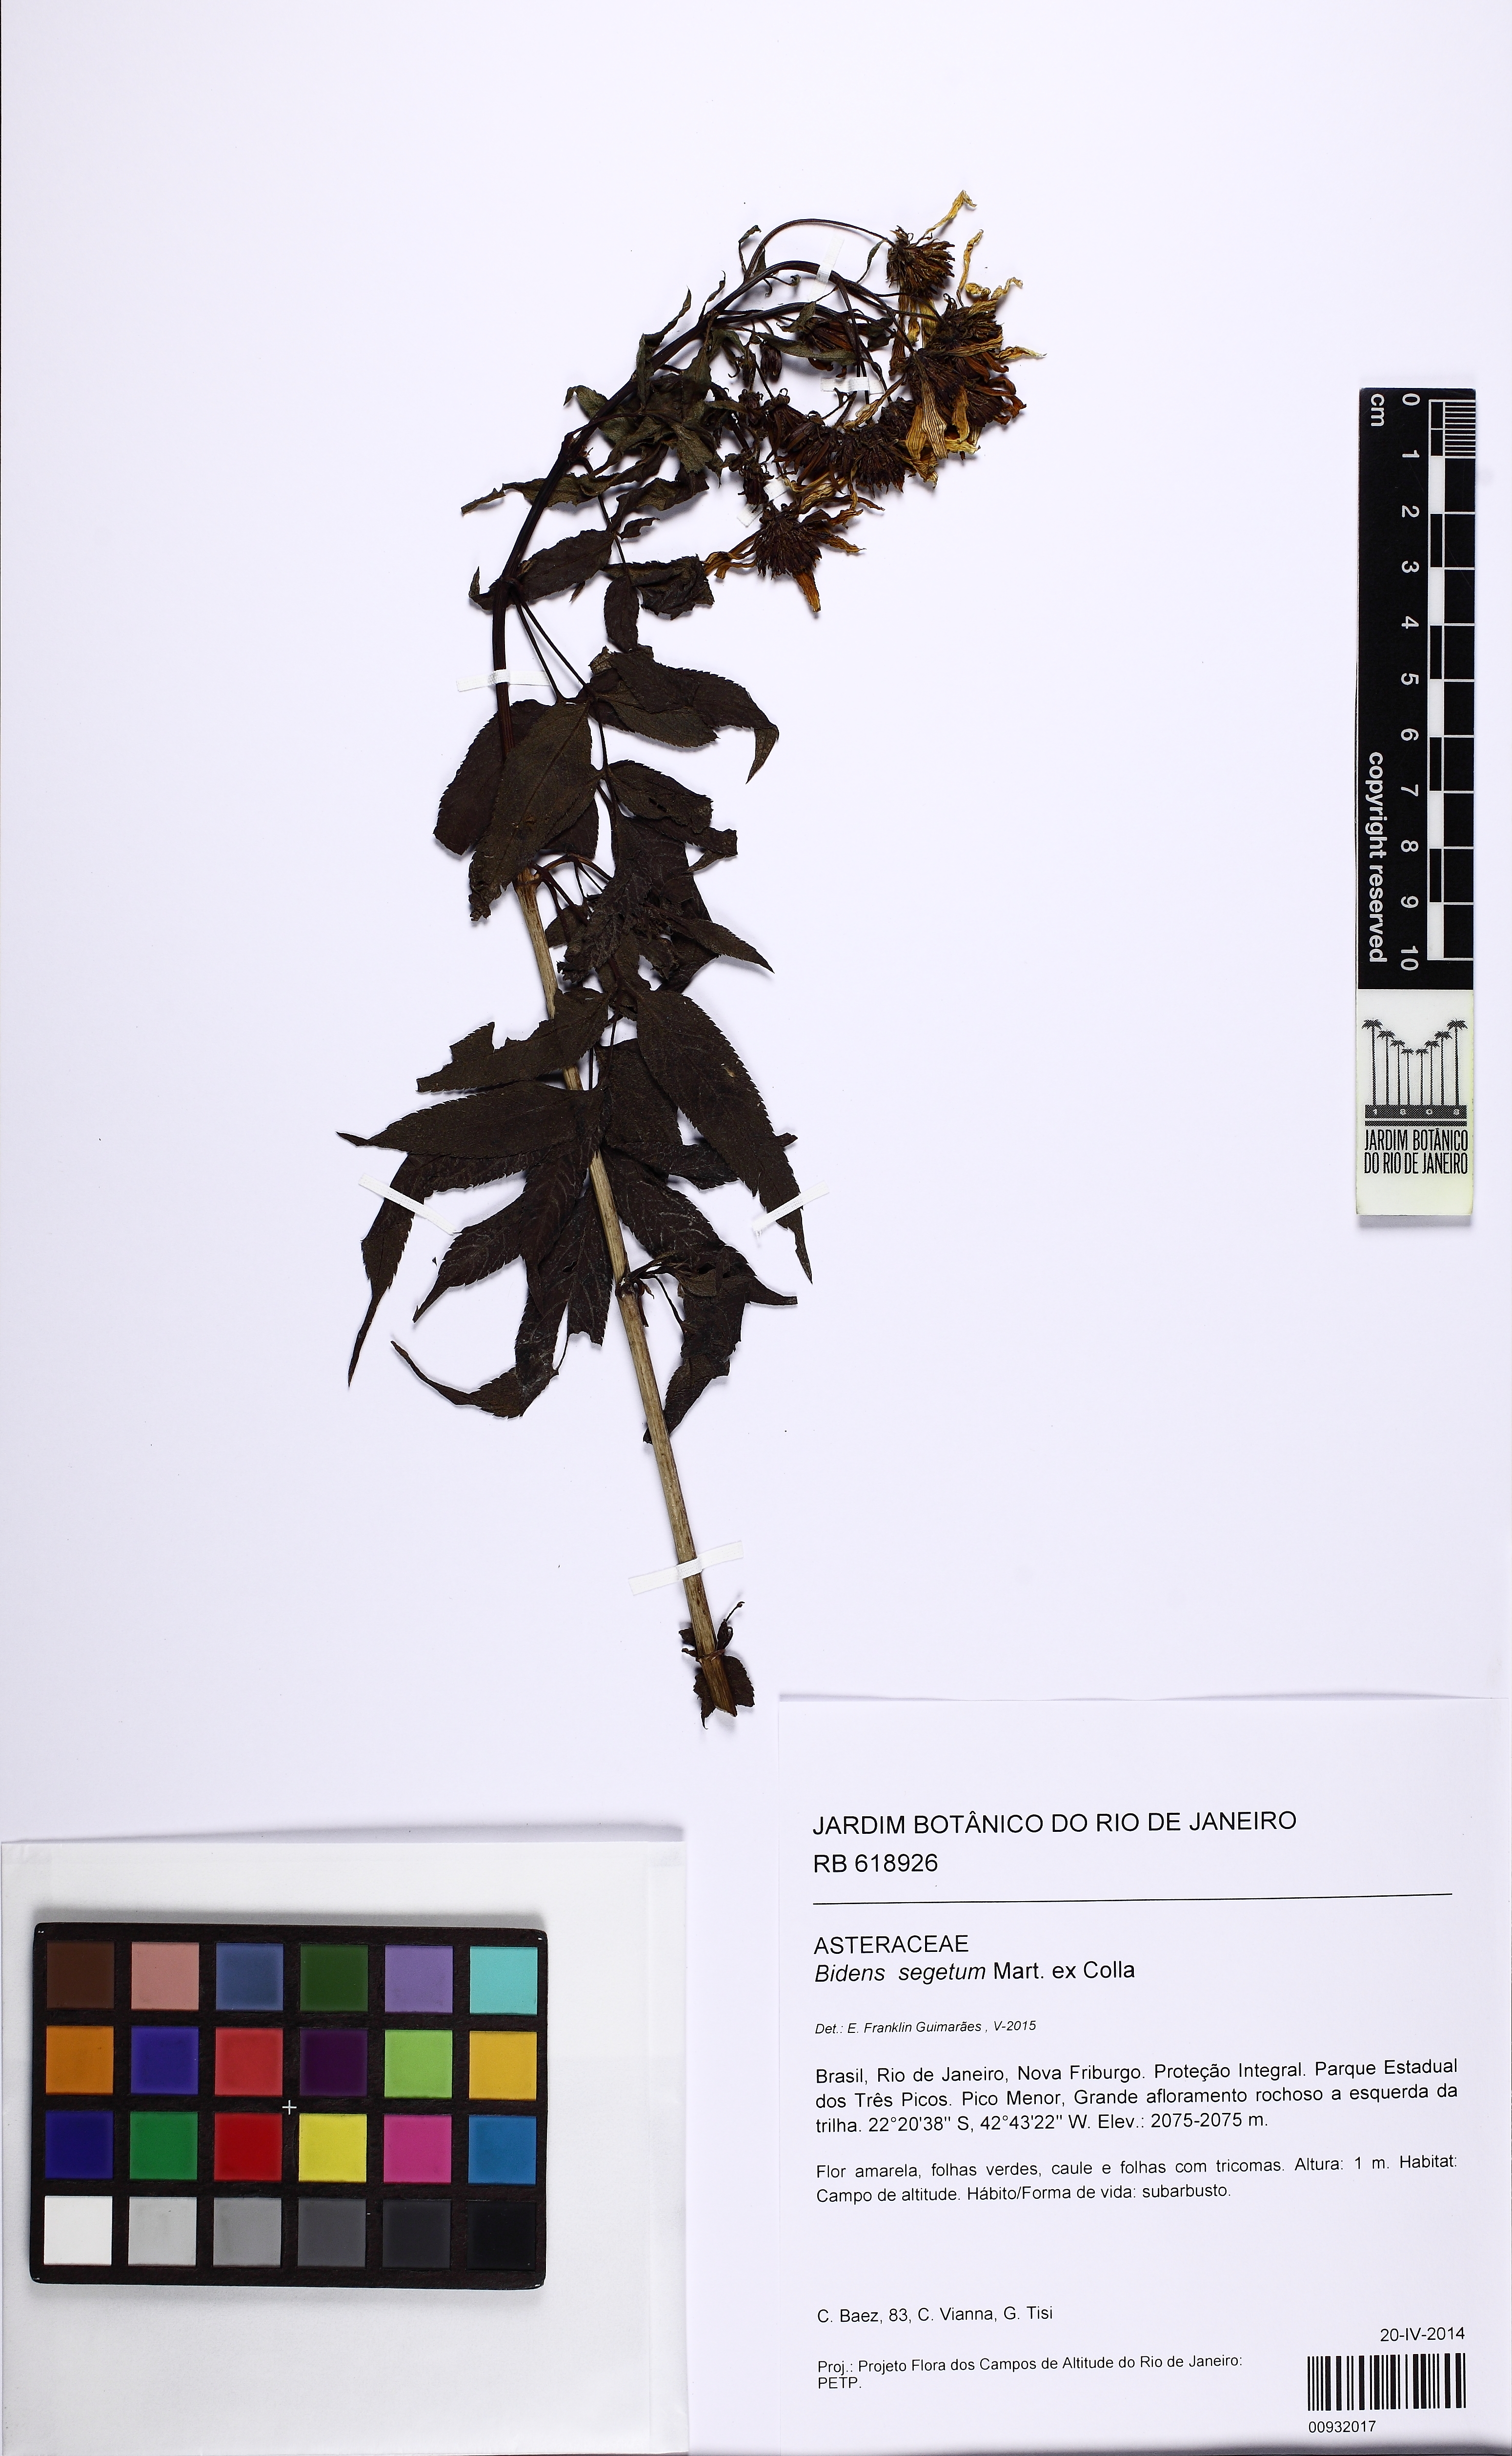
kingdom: Plantae
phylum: Tracheophyta
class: Magnoliopsida
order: Asterales
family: Asteraceae
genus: Bidens
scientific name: Bidens segetum
